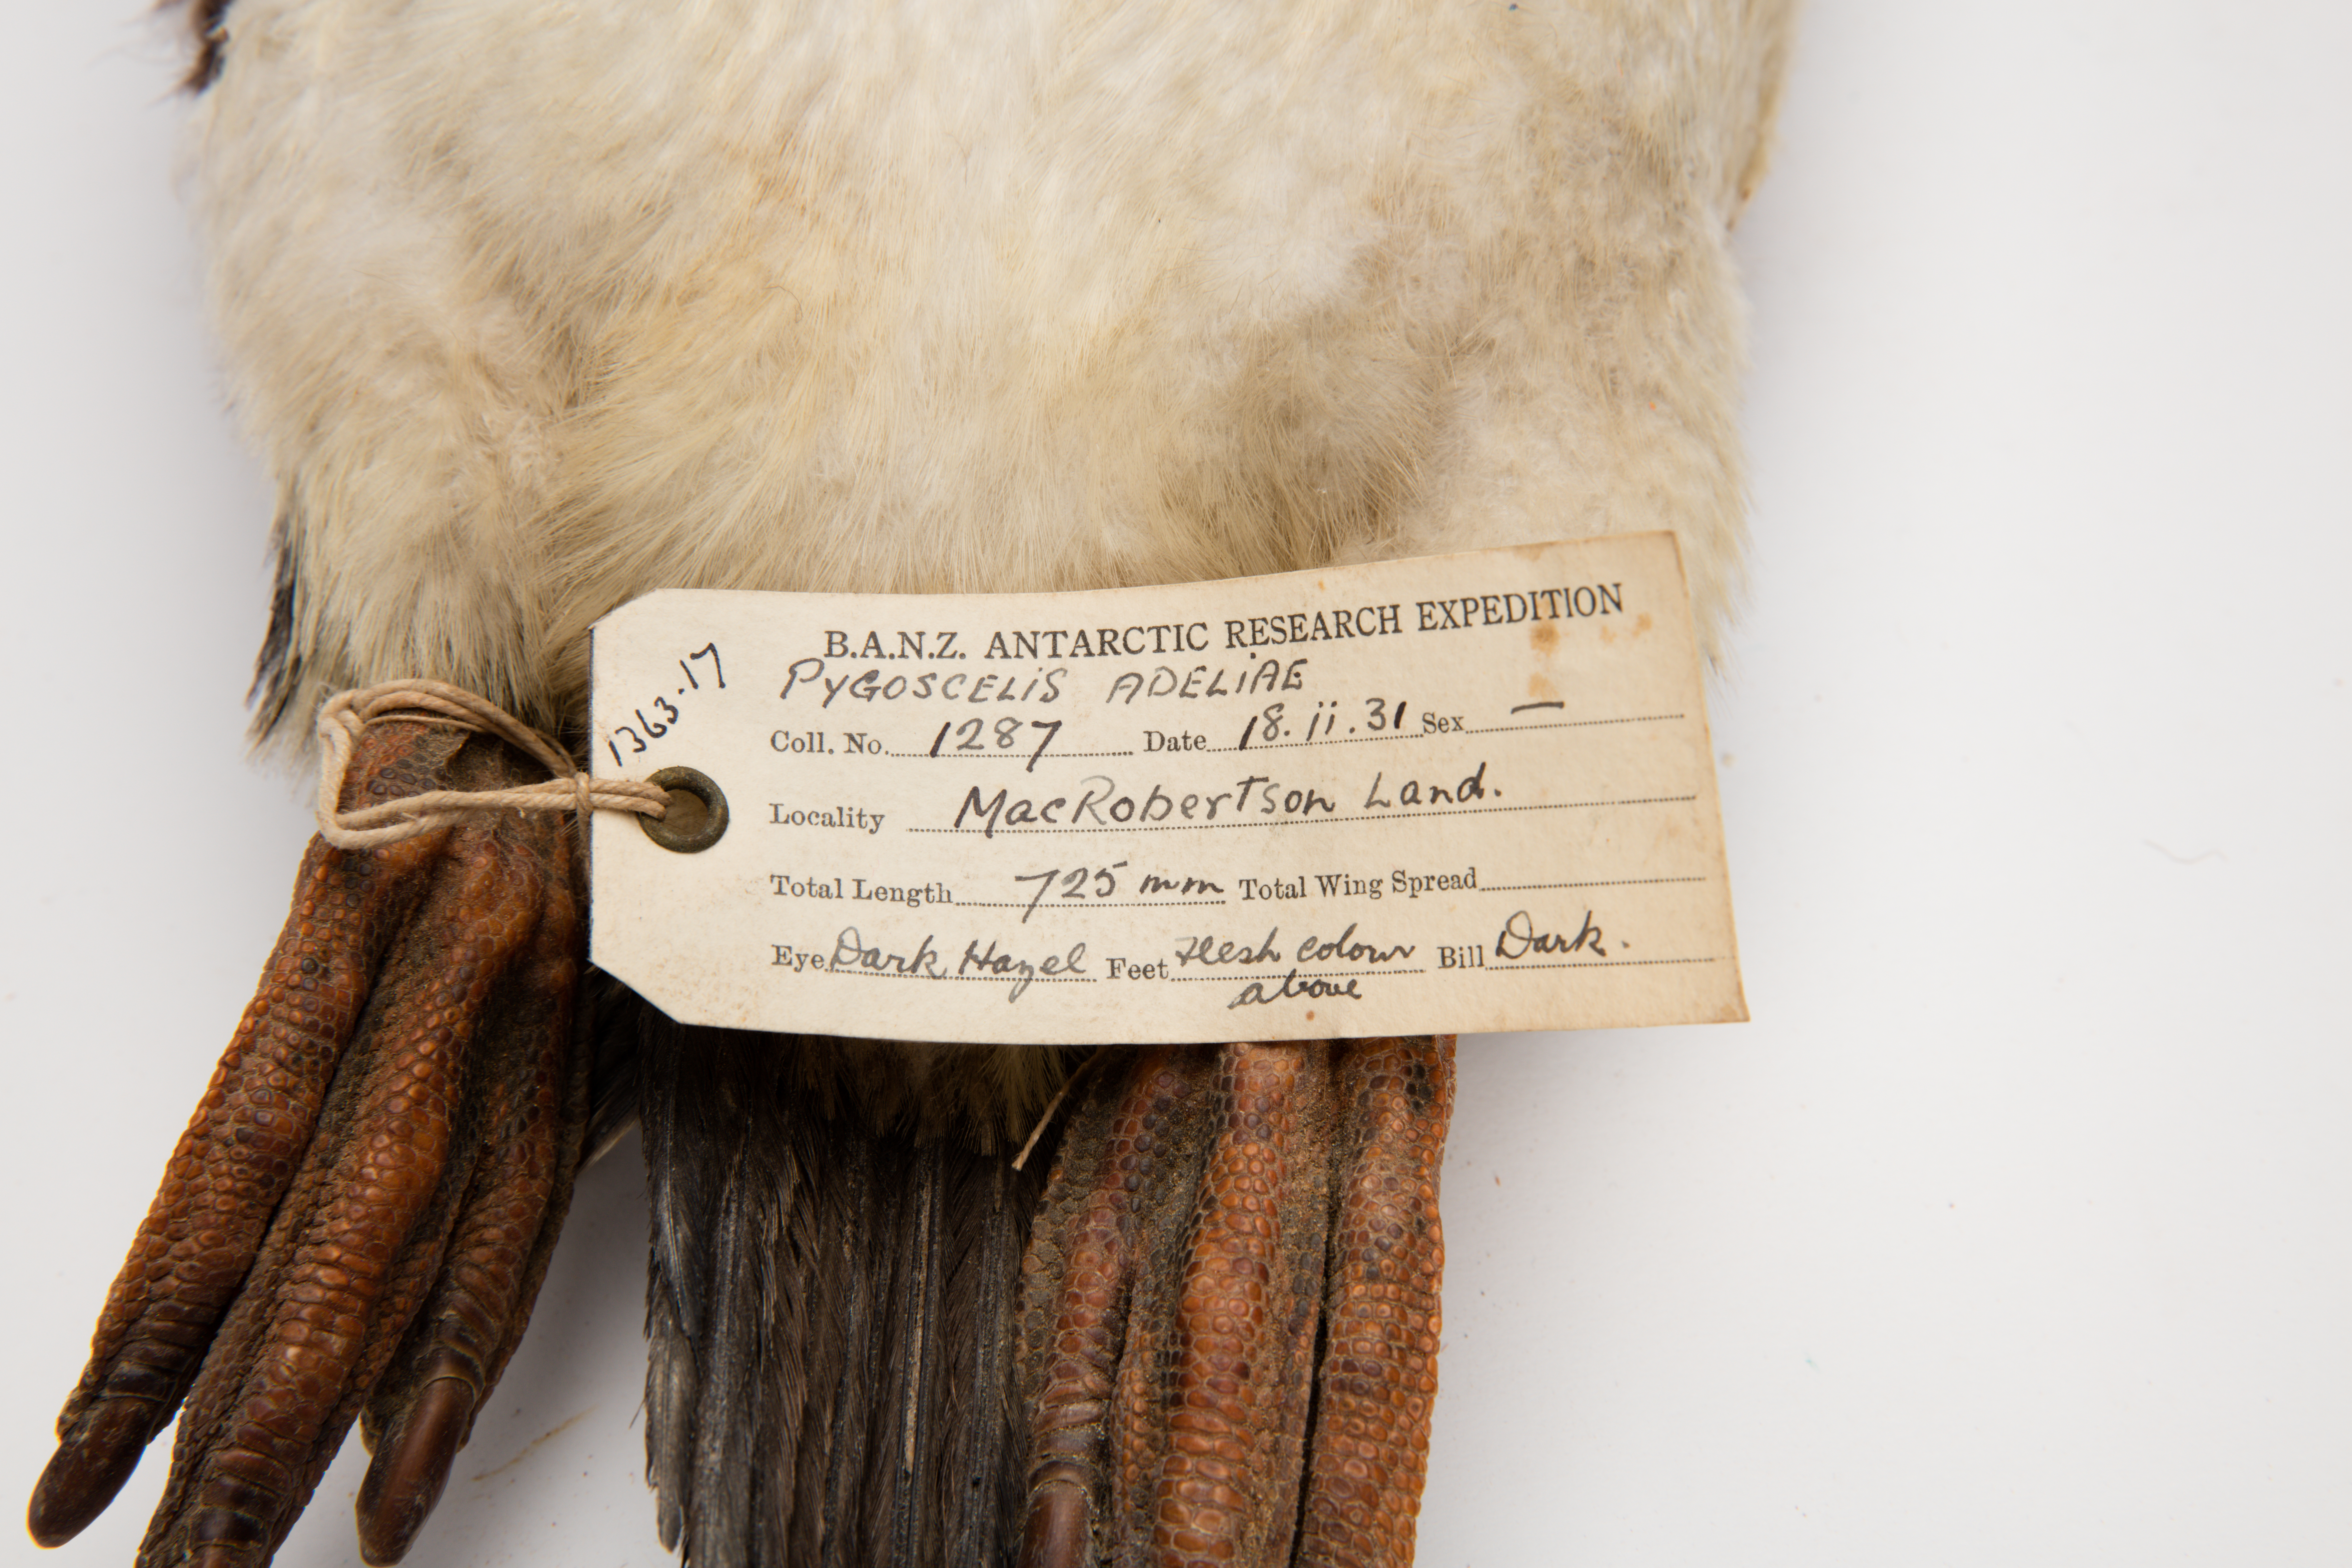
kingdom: Animalia
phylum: Chordata
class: Aves
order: Sphenisciformes
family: Spheniscidae
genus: Pygoscelis
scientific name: Pygoscelis adeliae
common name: Adelie penguin
